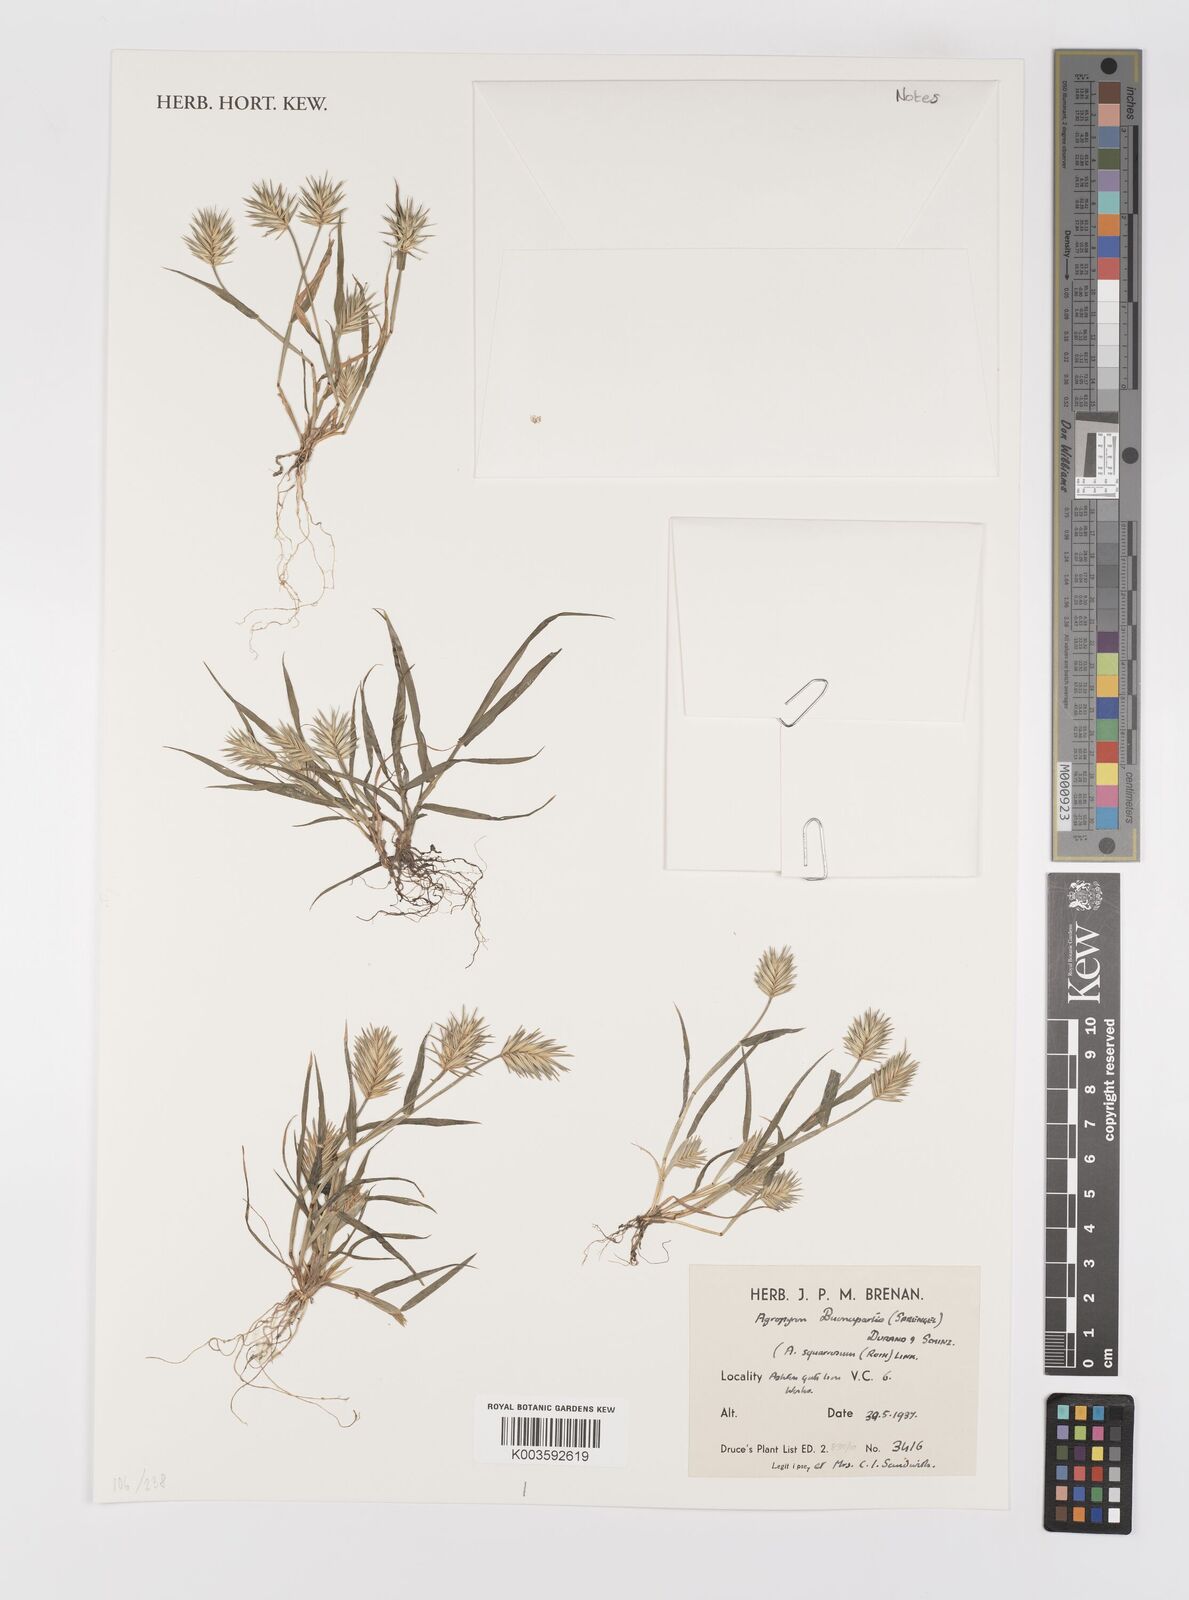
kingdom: Plantae
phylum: Tracheophyta
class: Liliopsida
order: Poales
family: Poaceae
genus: Eremopyrum
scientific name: Eremopyrum bonaepartis
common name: Tapertip false wheatgrass
